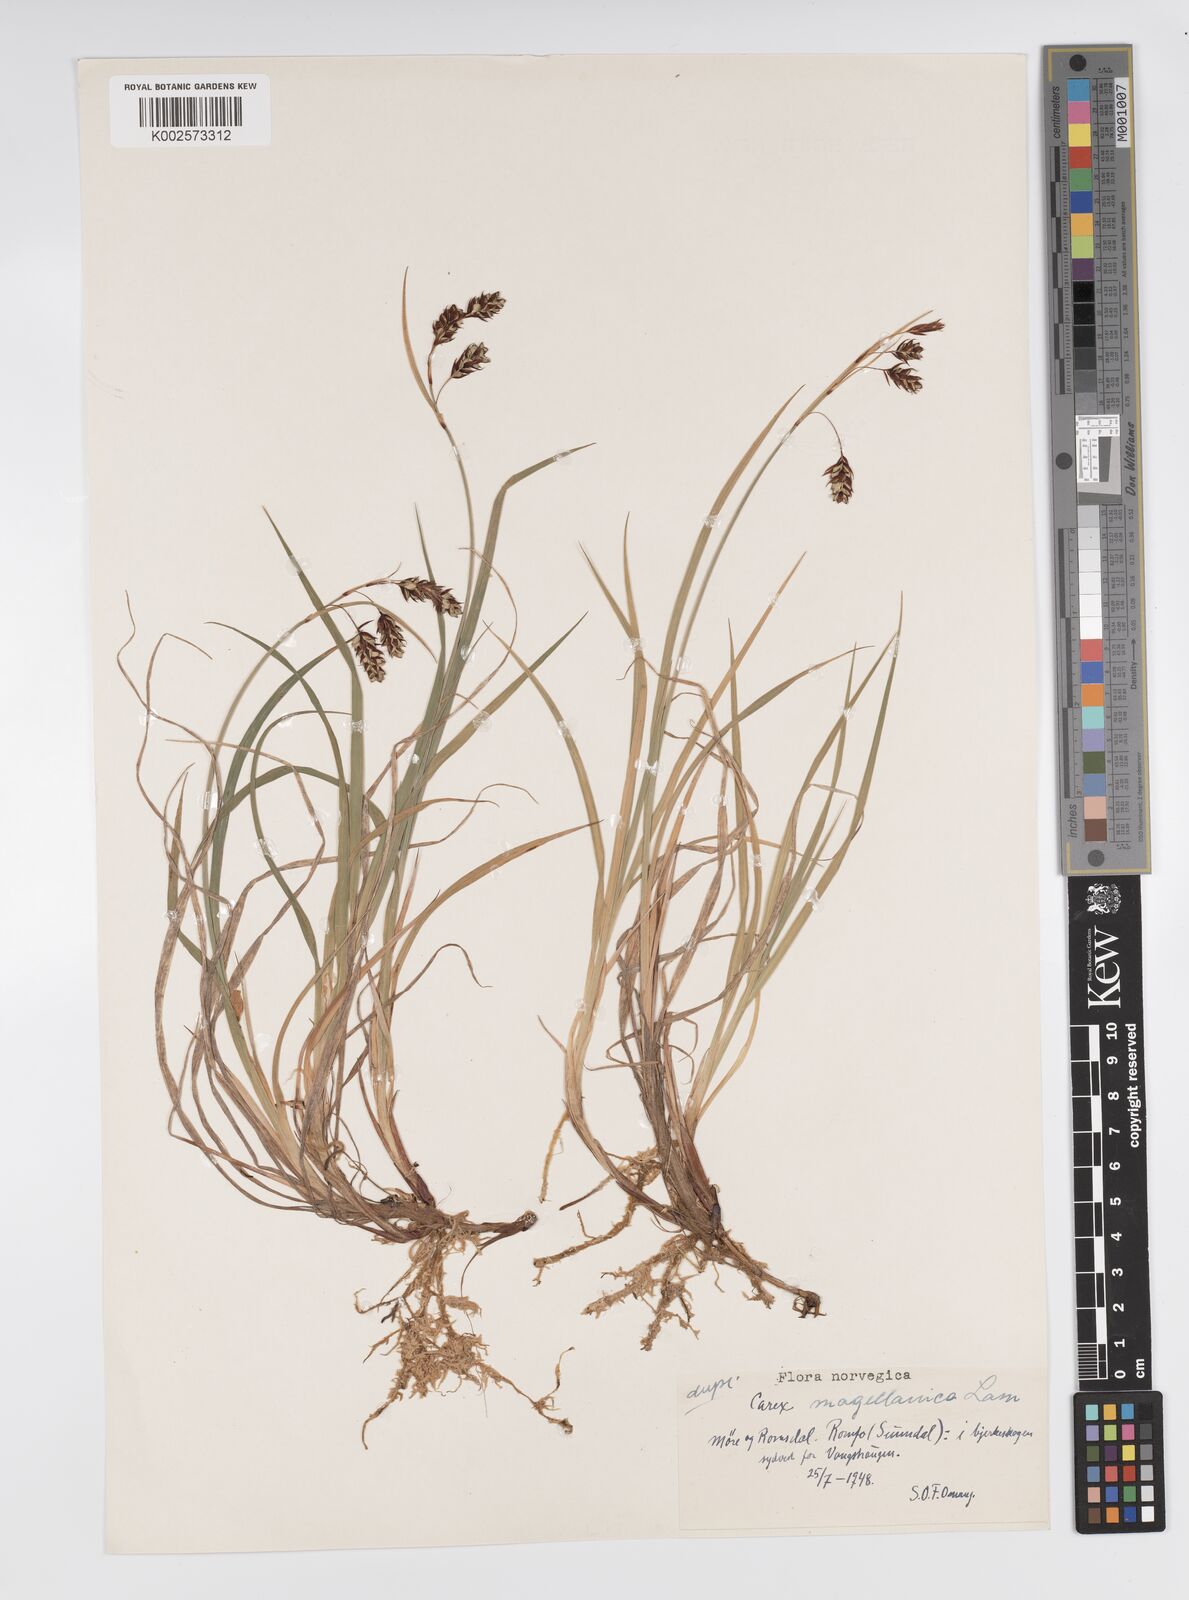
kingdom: Plantae
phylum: Tracheophyta
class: Liliopsida
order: Poales
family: Cyperaceae
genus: Carex
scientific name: Carex magellanica
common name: Bog sedge
